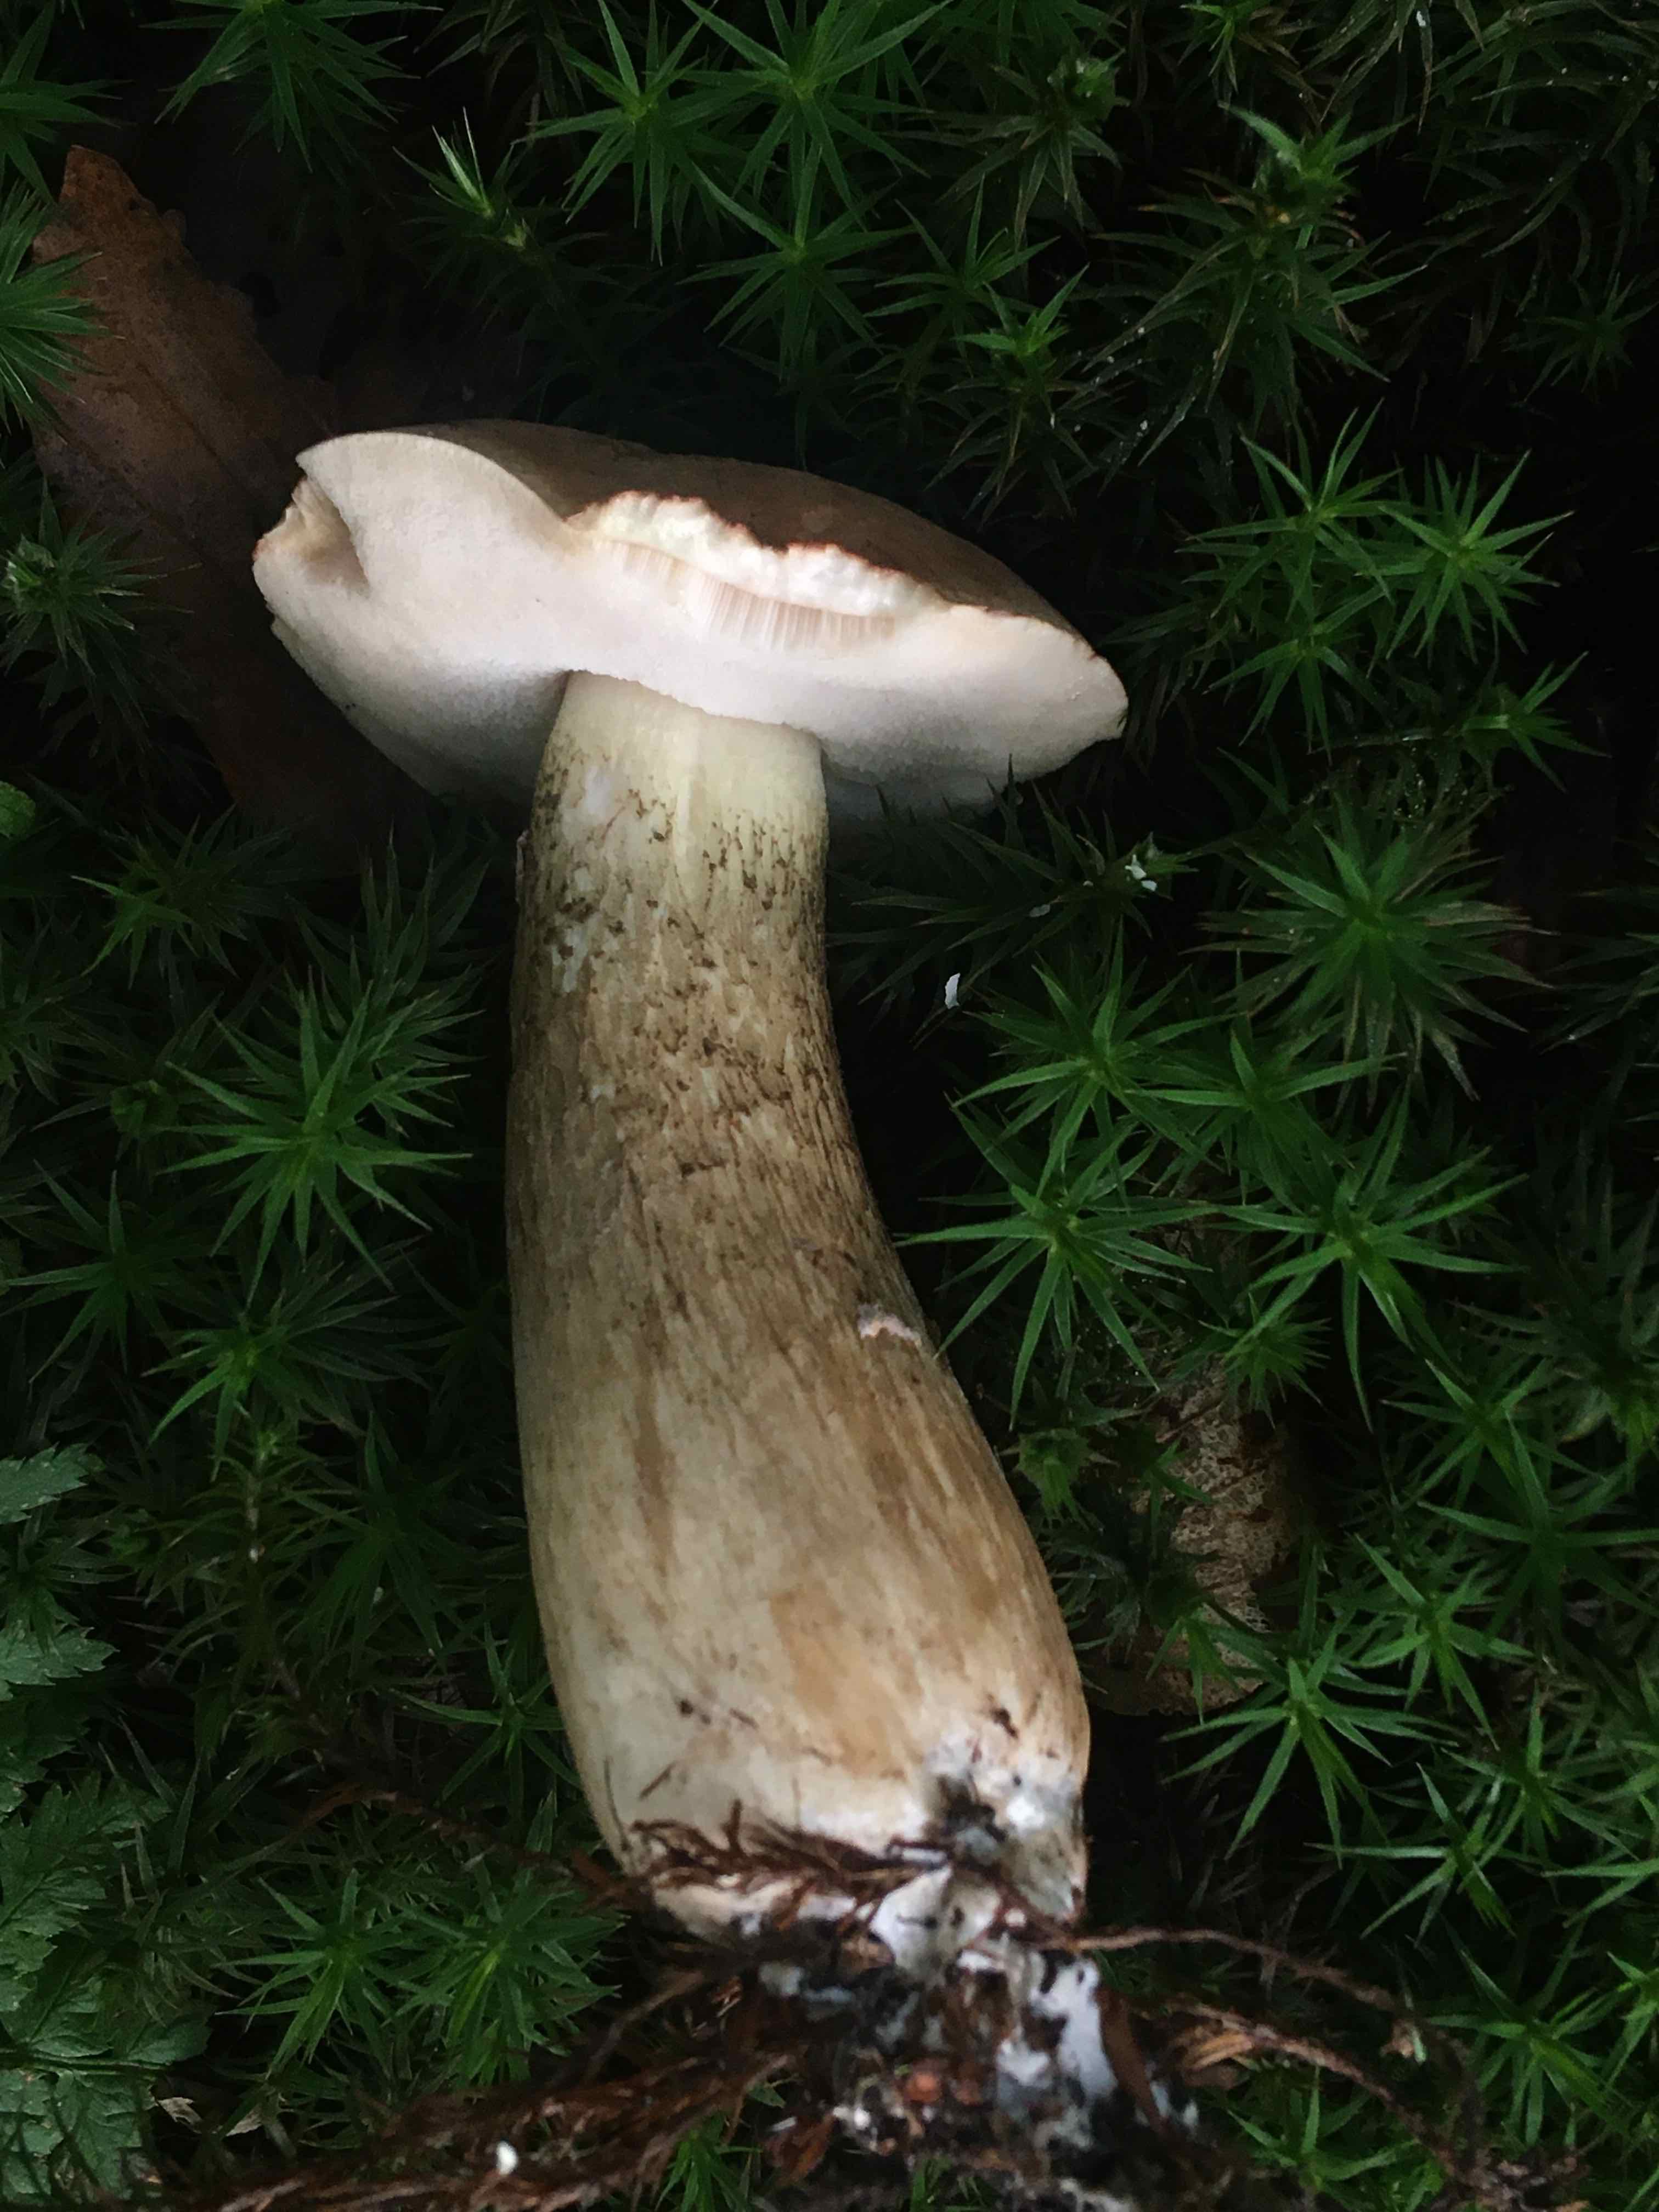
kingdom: Fungi
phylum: Basidiomycota
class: Agaricomycetes
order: Boletales
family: Boletaceae
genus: Tylopilus
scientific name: Tylopilus felleus
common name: galderørhat
